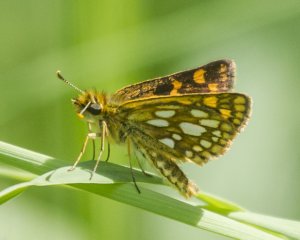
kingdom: Animalia
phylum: Arthropoda
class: Insecta
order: Lepidoptera
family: Hesperiidae
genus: Carterocephalus
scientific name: Carterocephalus palaemon
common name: Chequered Skipper
